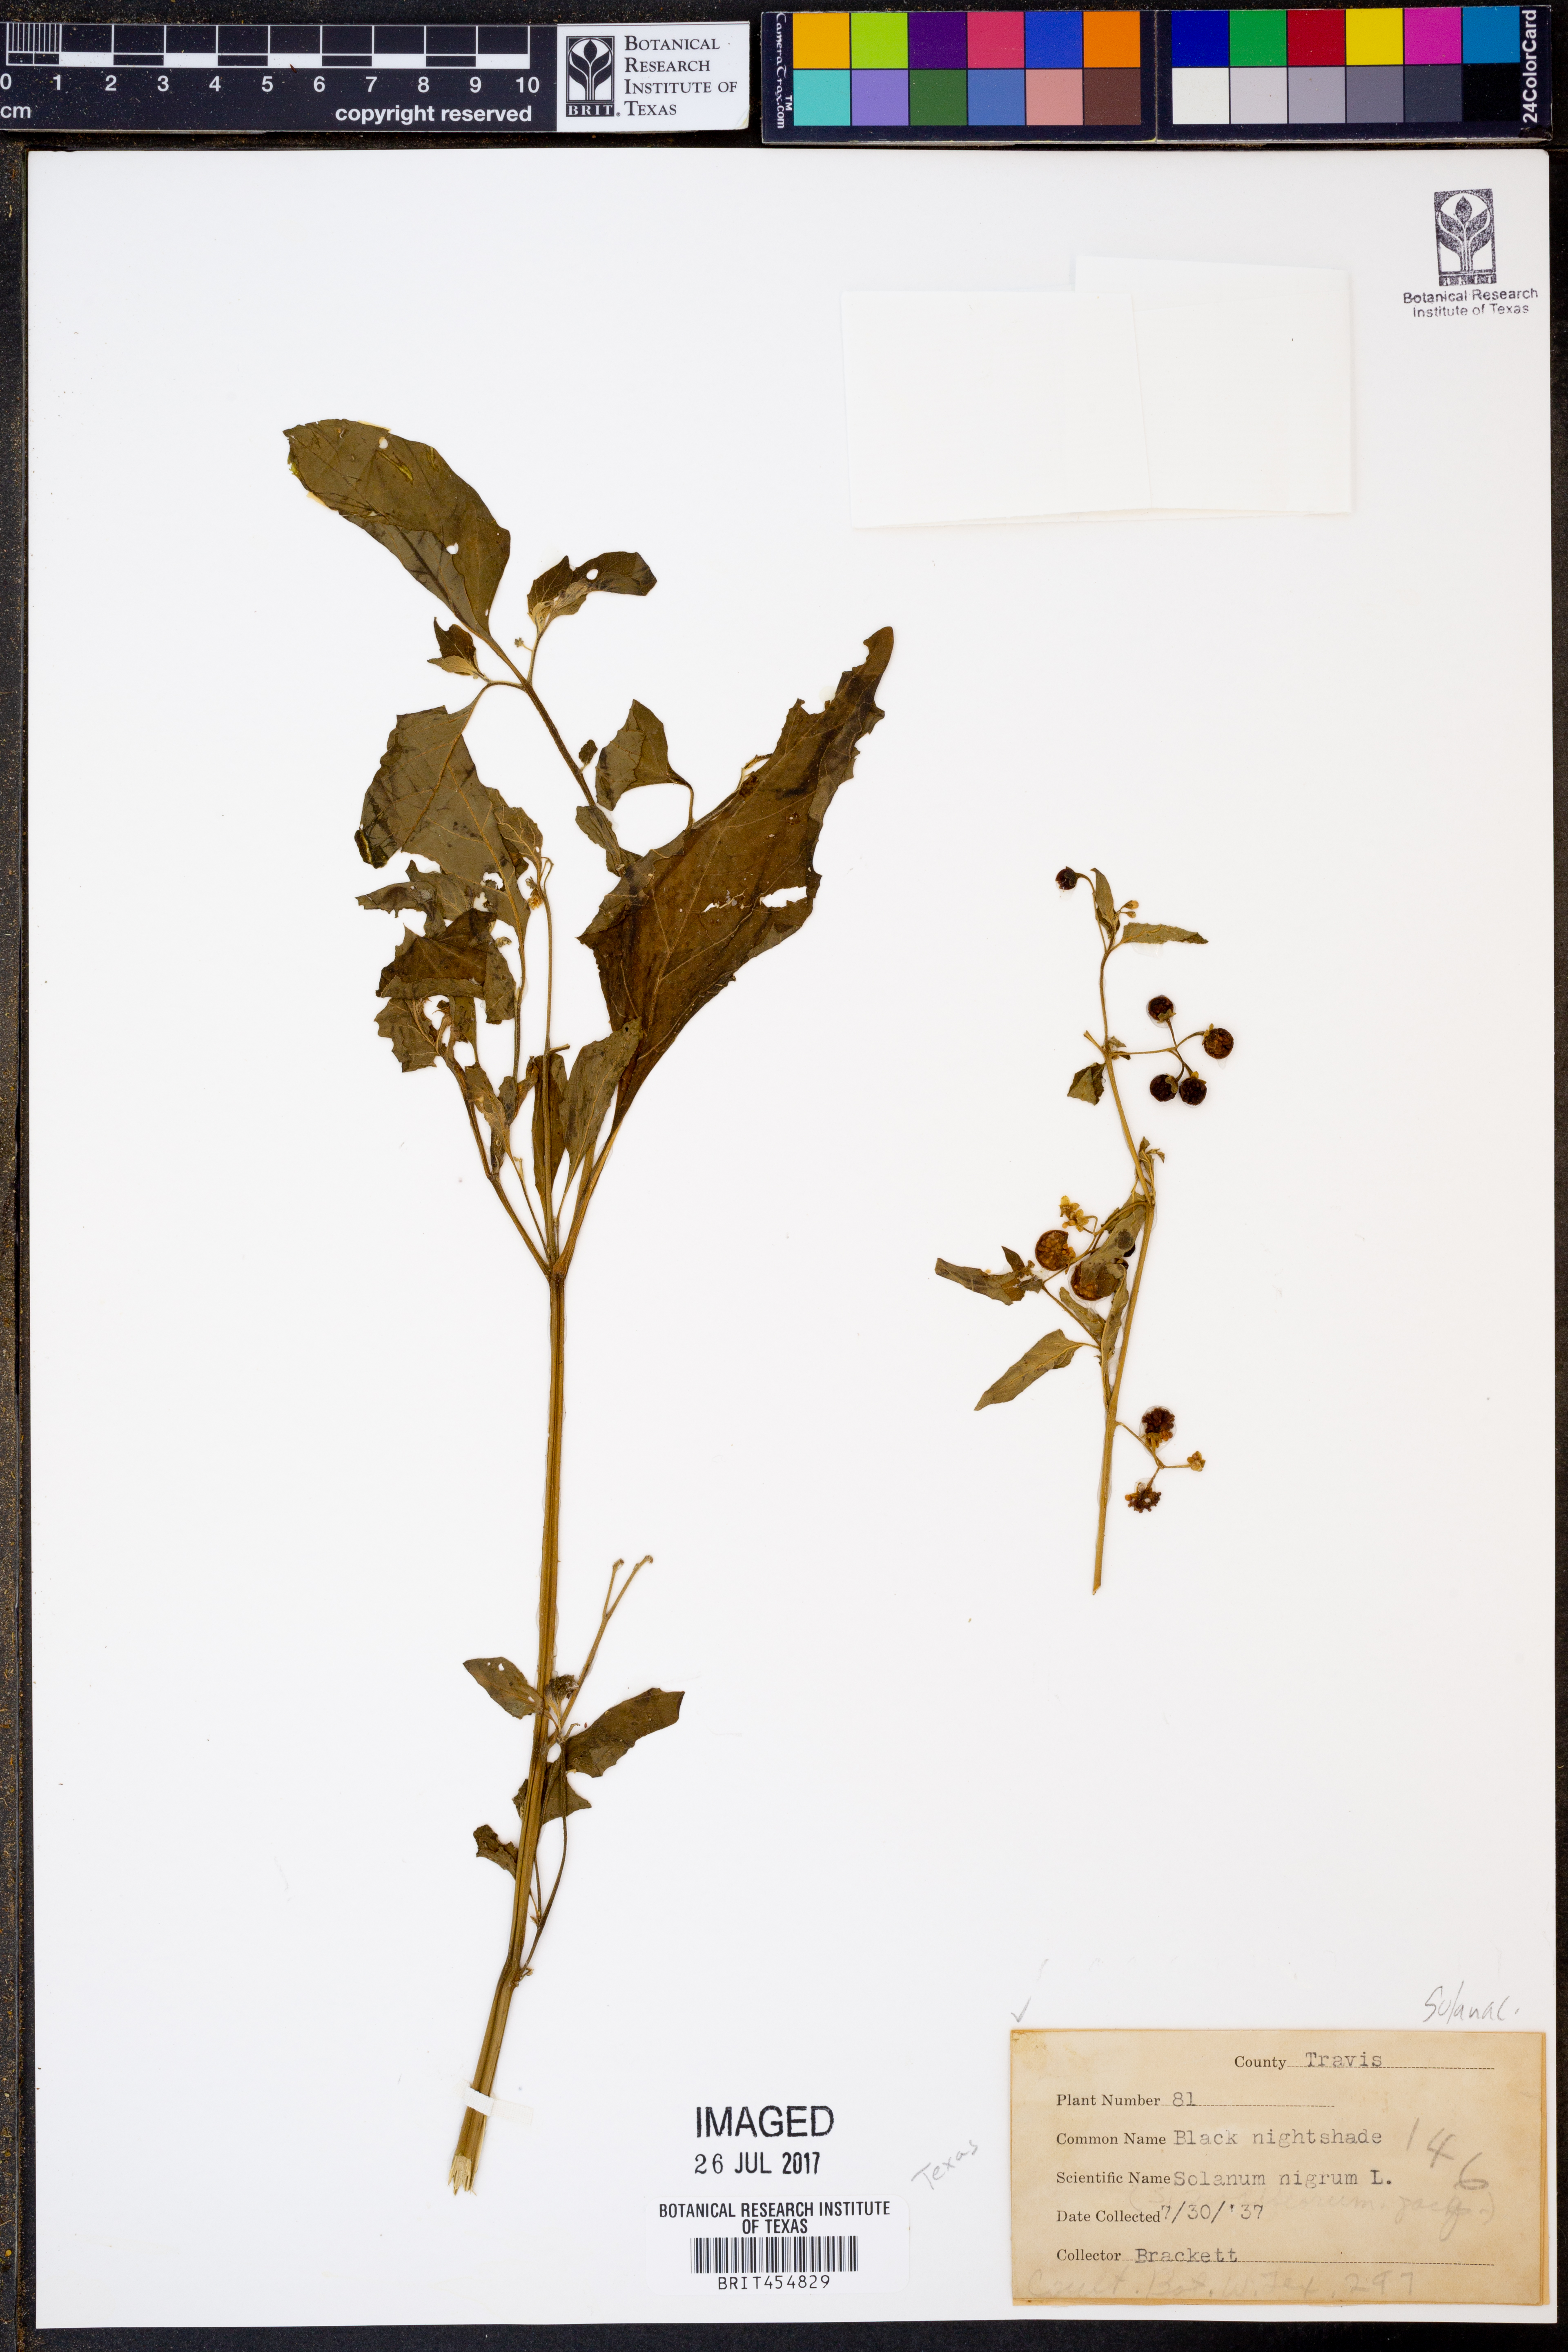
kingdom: Plantae
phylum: Tracheophyta
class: Magnoliopsida
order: Solanales
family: Solanaceae
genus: Solanum
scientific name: Solanum nigrum
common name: Black nightshade
